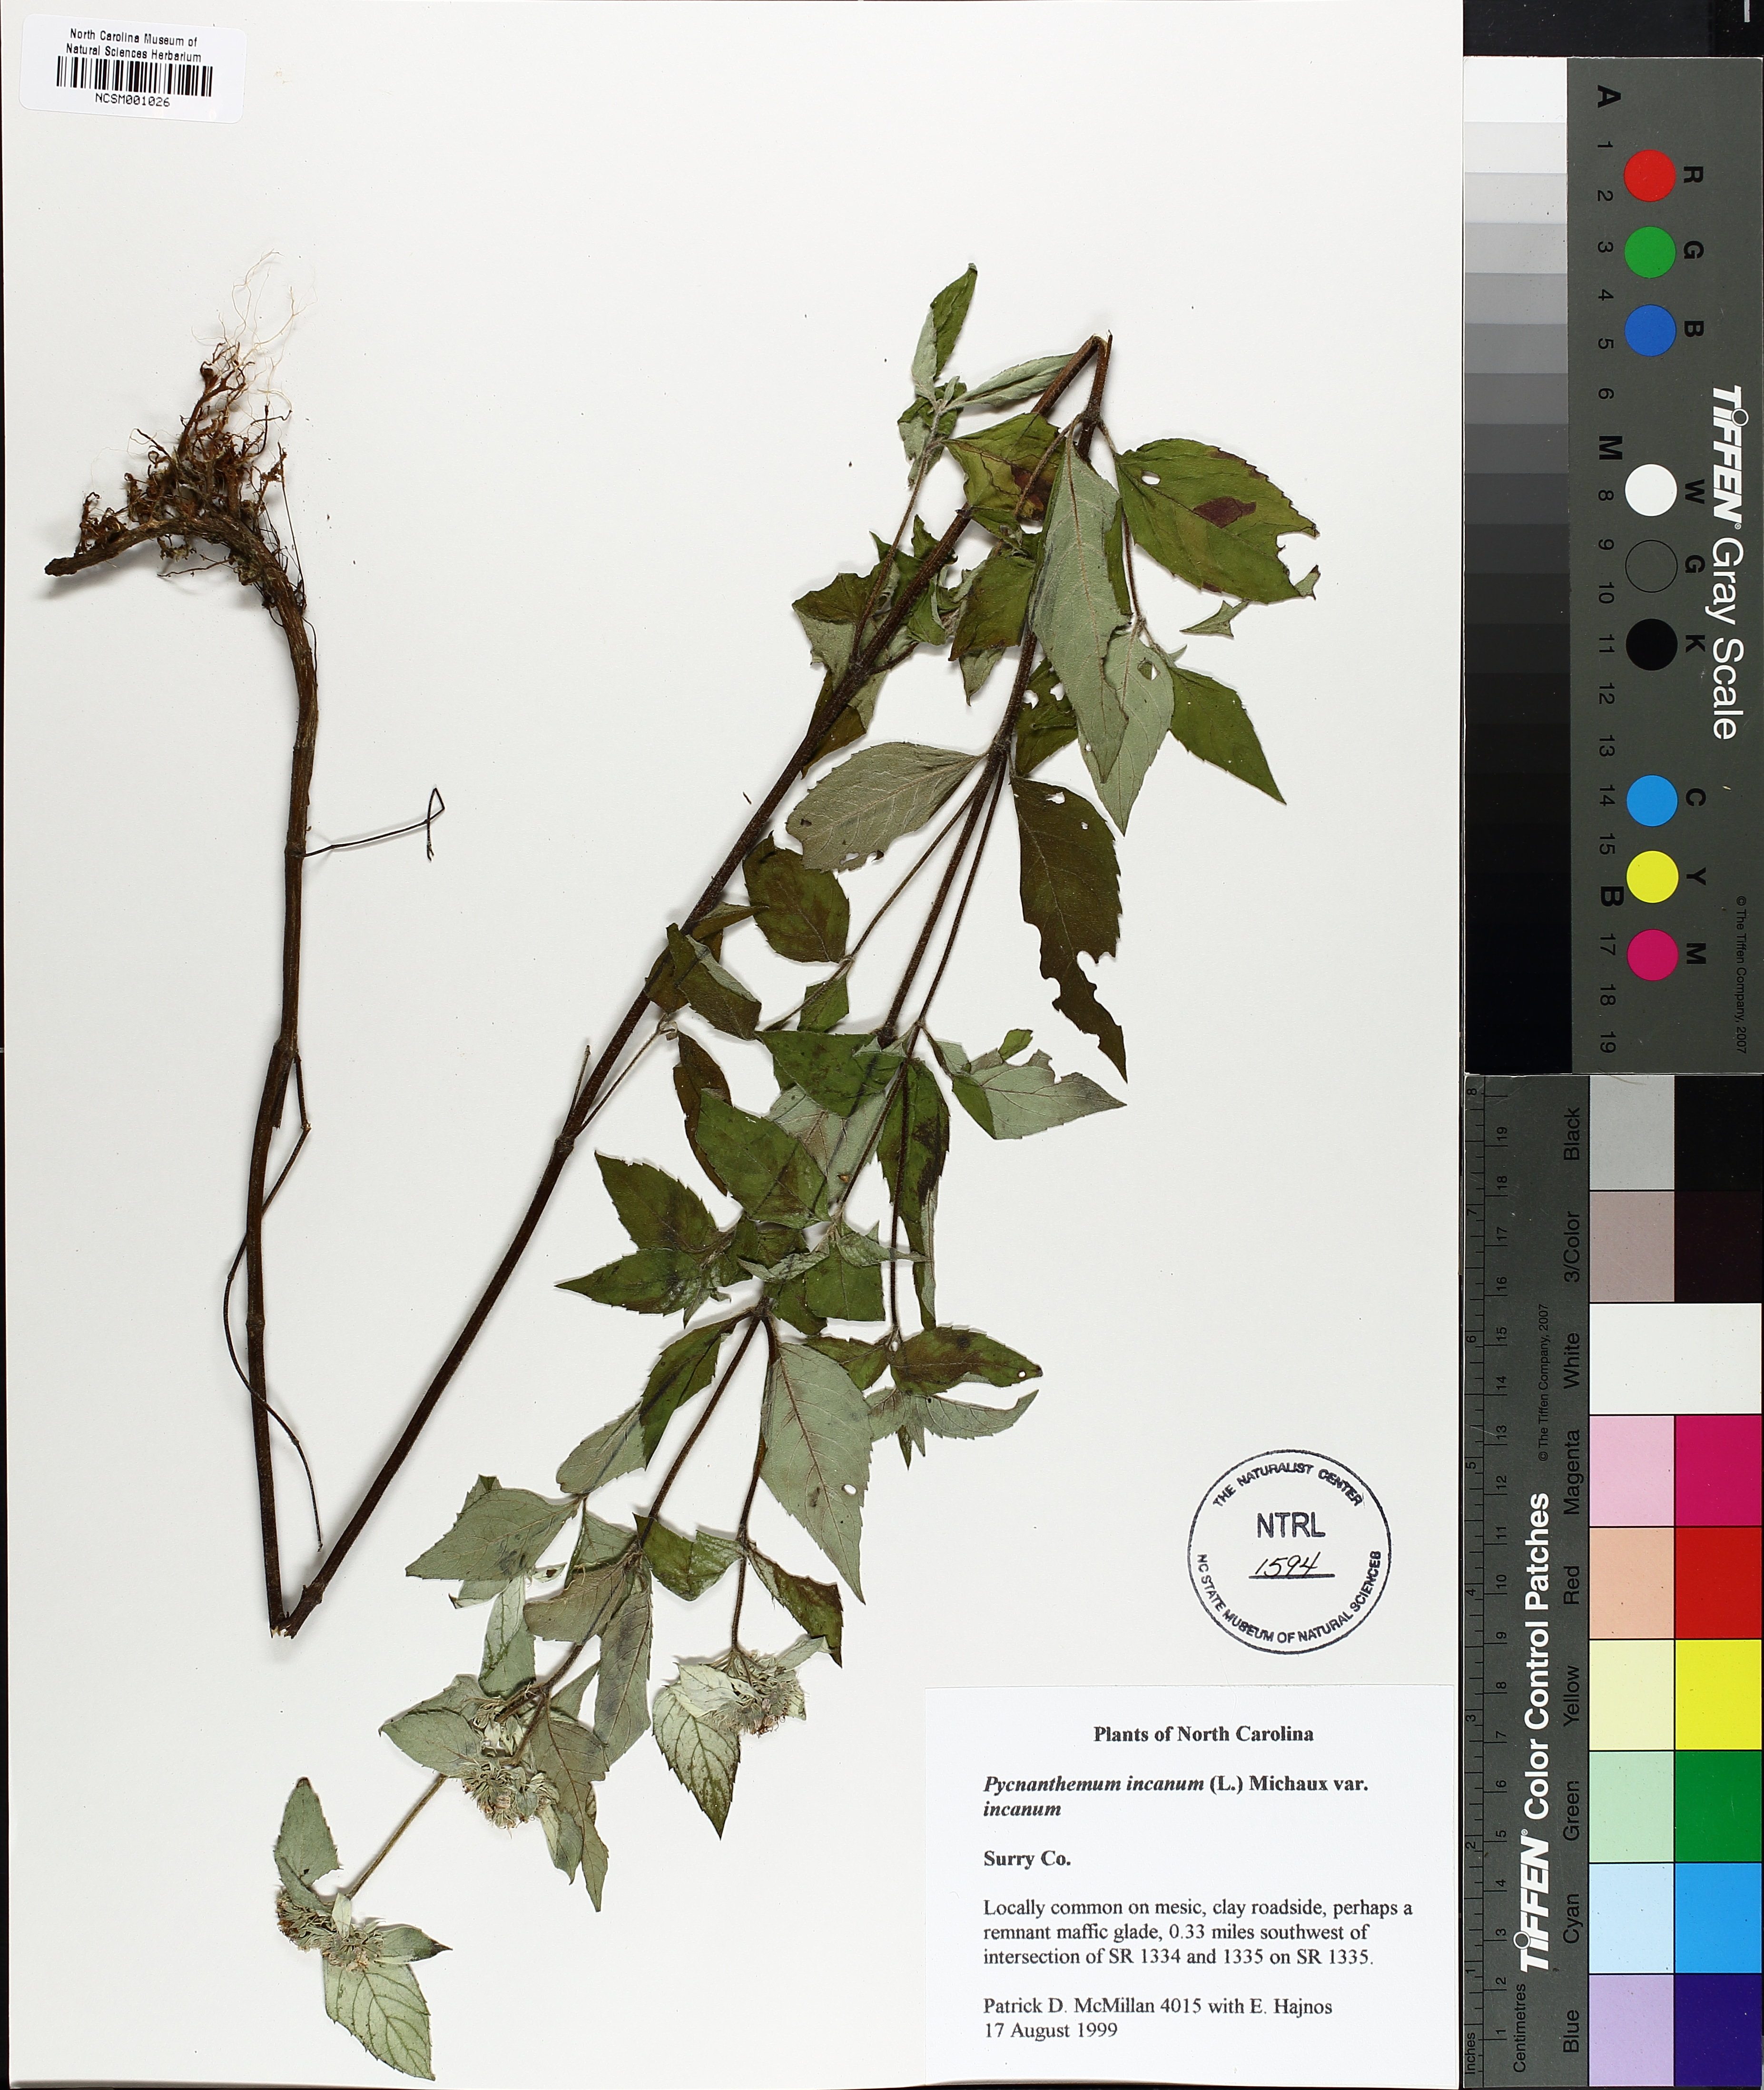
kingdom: Plantae
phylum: Tracheophyta
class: Magnoliopsida
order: Lamiales
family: Lamiaceae
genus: Pycnanthemum
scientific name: Pycnanthemum incanum
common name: Hoary mountain-mint
